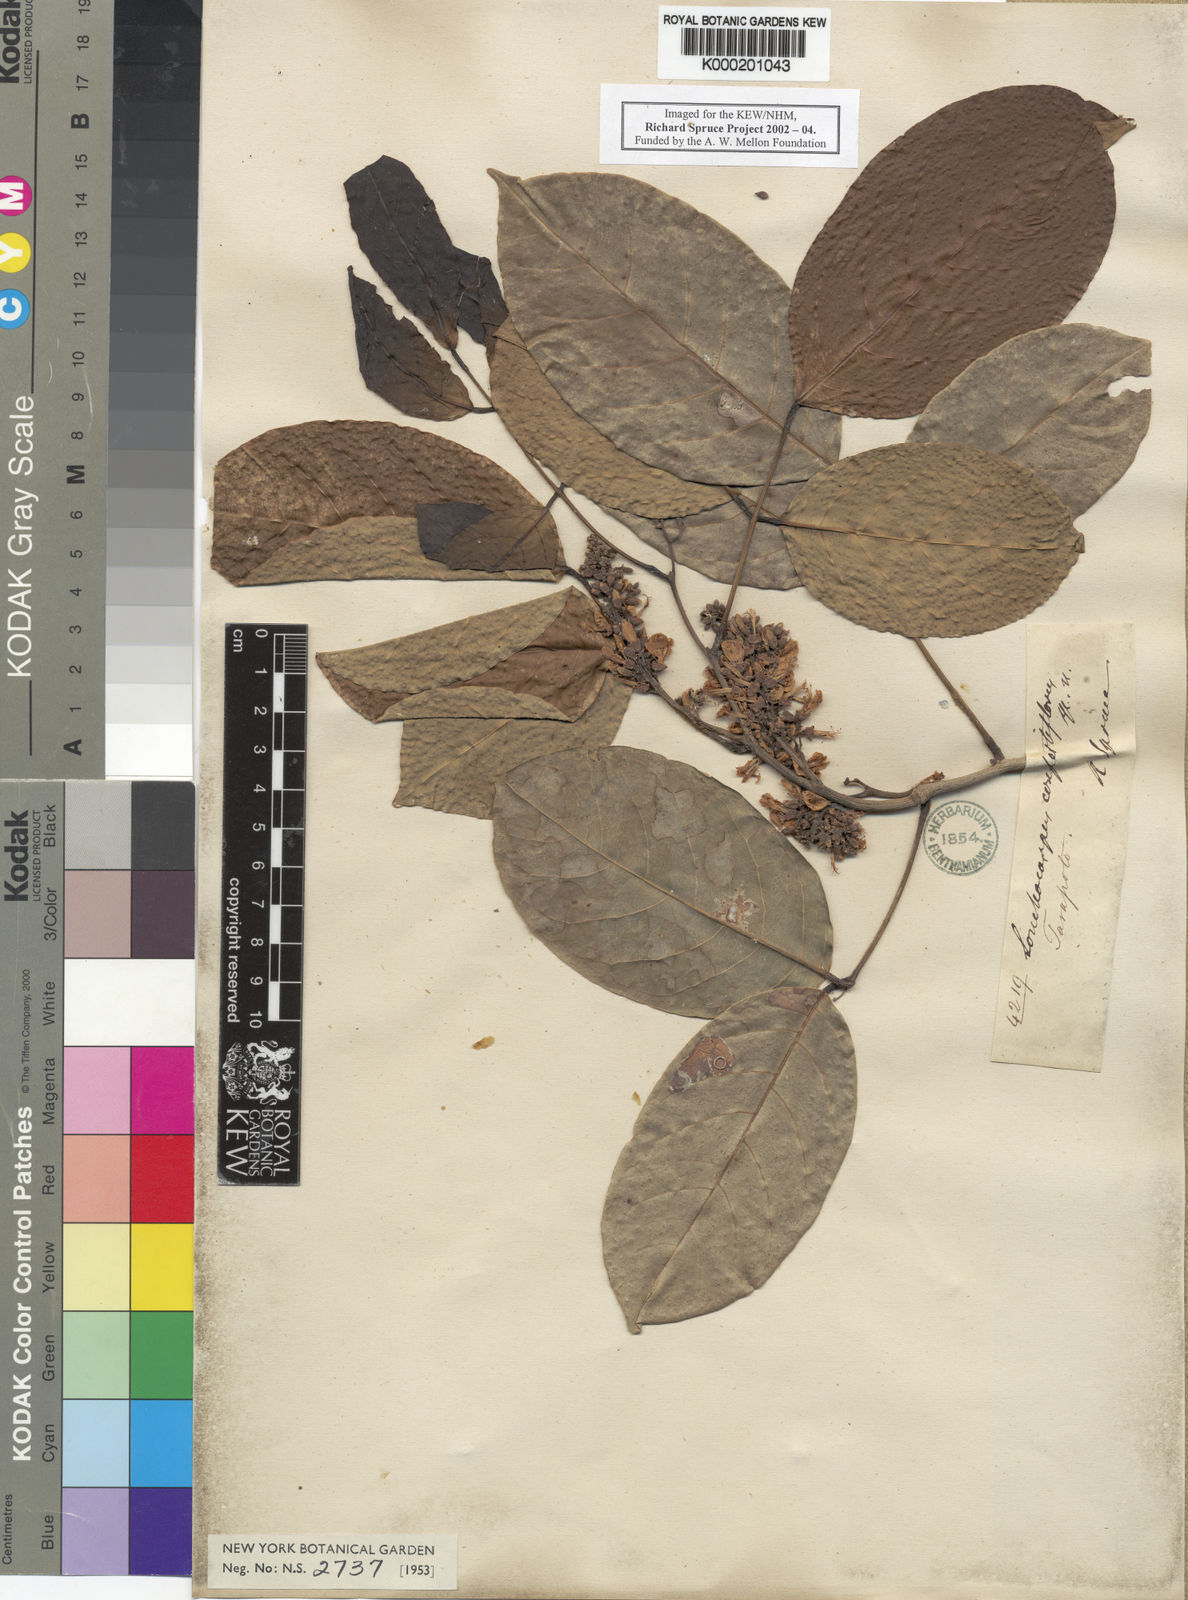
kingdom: Plantae
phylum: Tracheophyta
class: Magnoliopsida
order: Fabales
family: Fabaceae
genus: Dahlstedtia
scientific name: Dahlstedtia confertiflora
